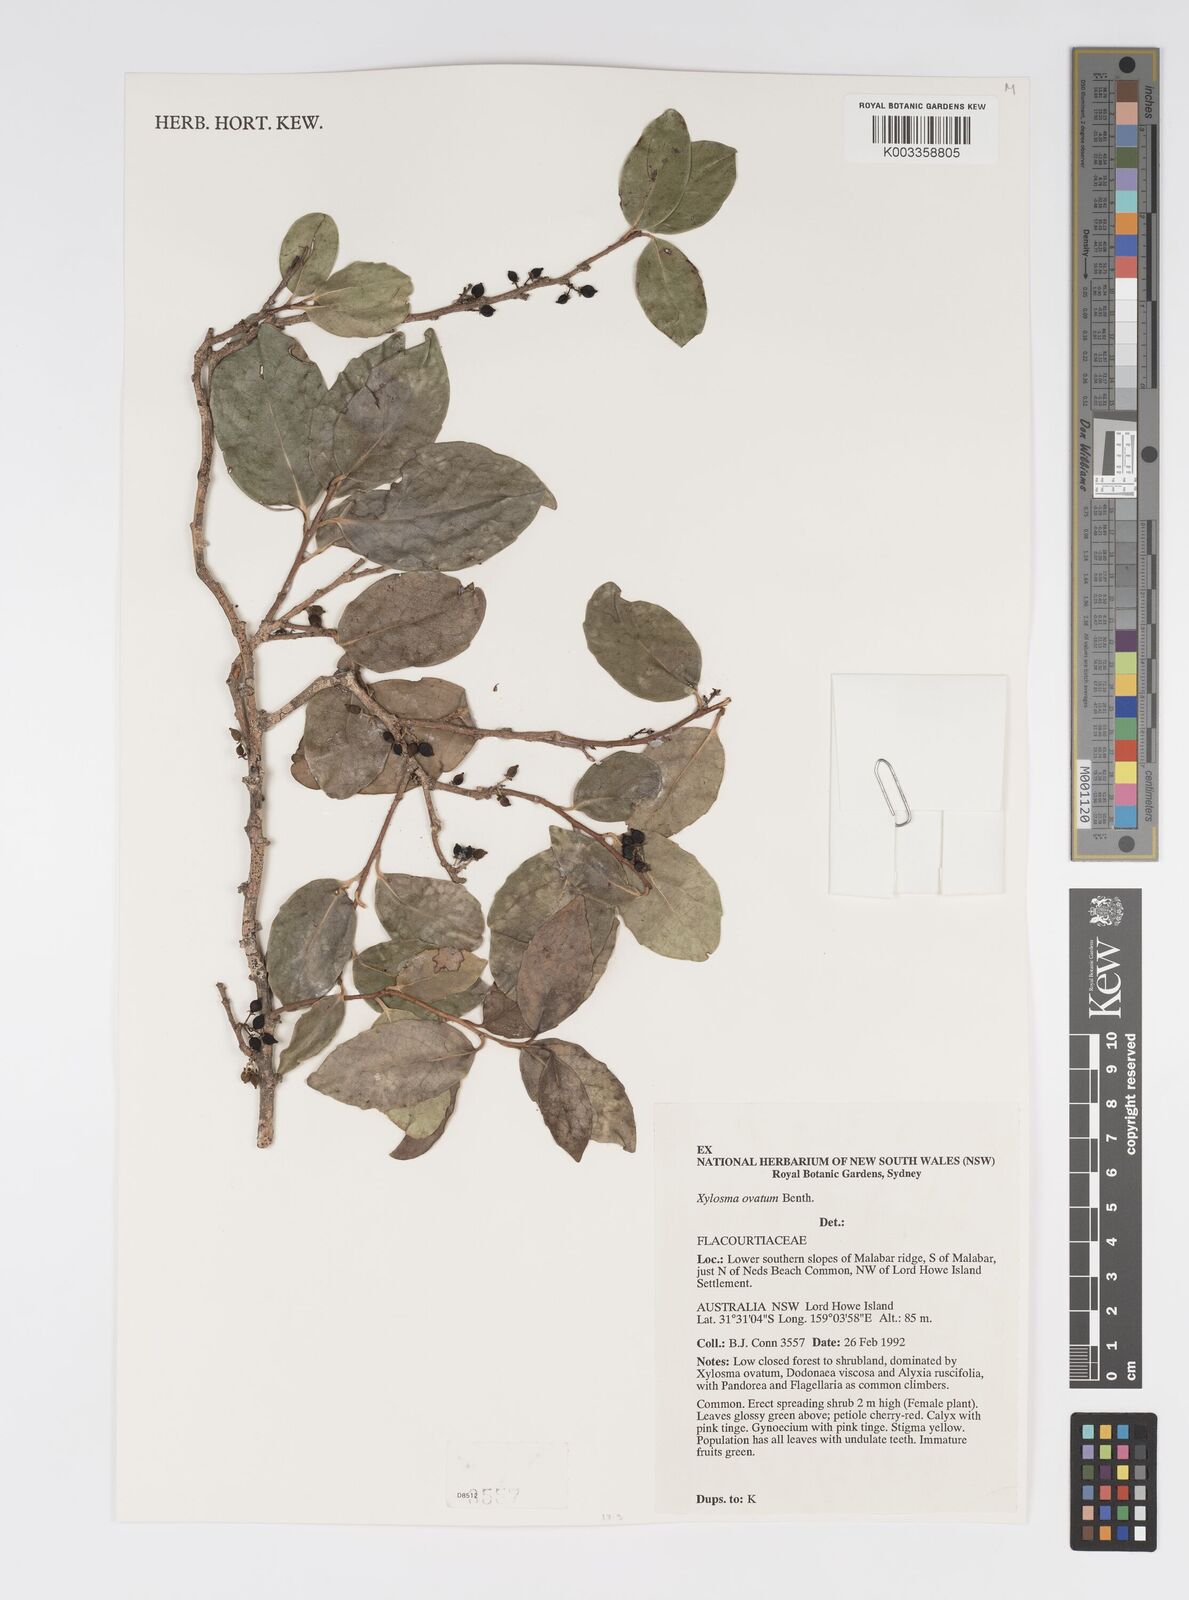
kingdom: Plantae
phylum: Tracheophyta
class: Magnoliopsida
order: Malpighiales
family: Salicaceae
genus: Xylosma
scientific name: Xylosma maidenii
